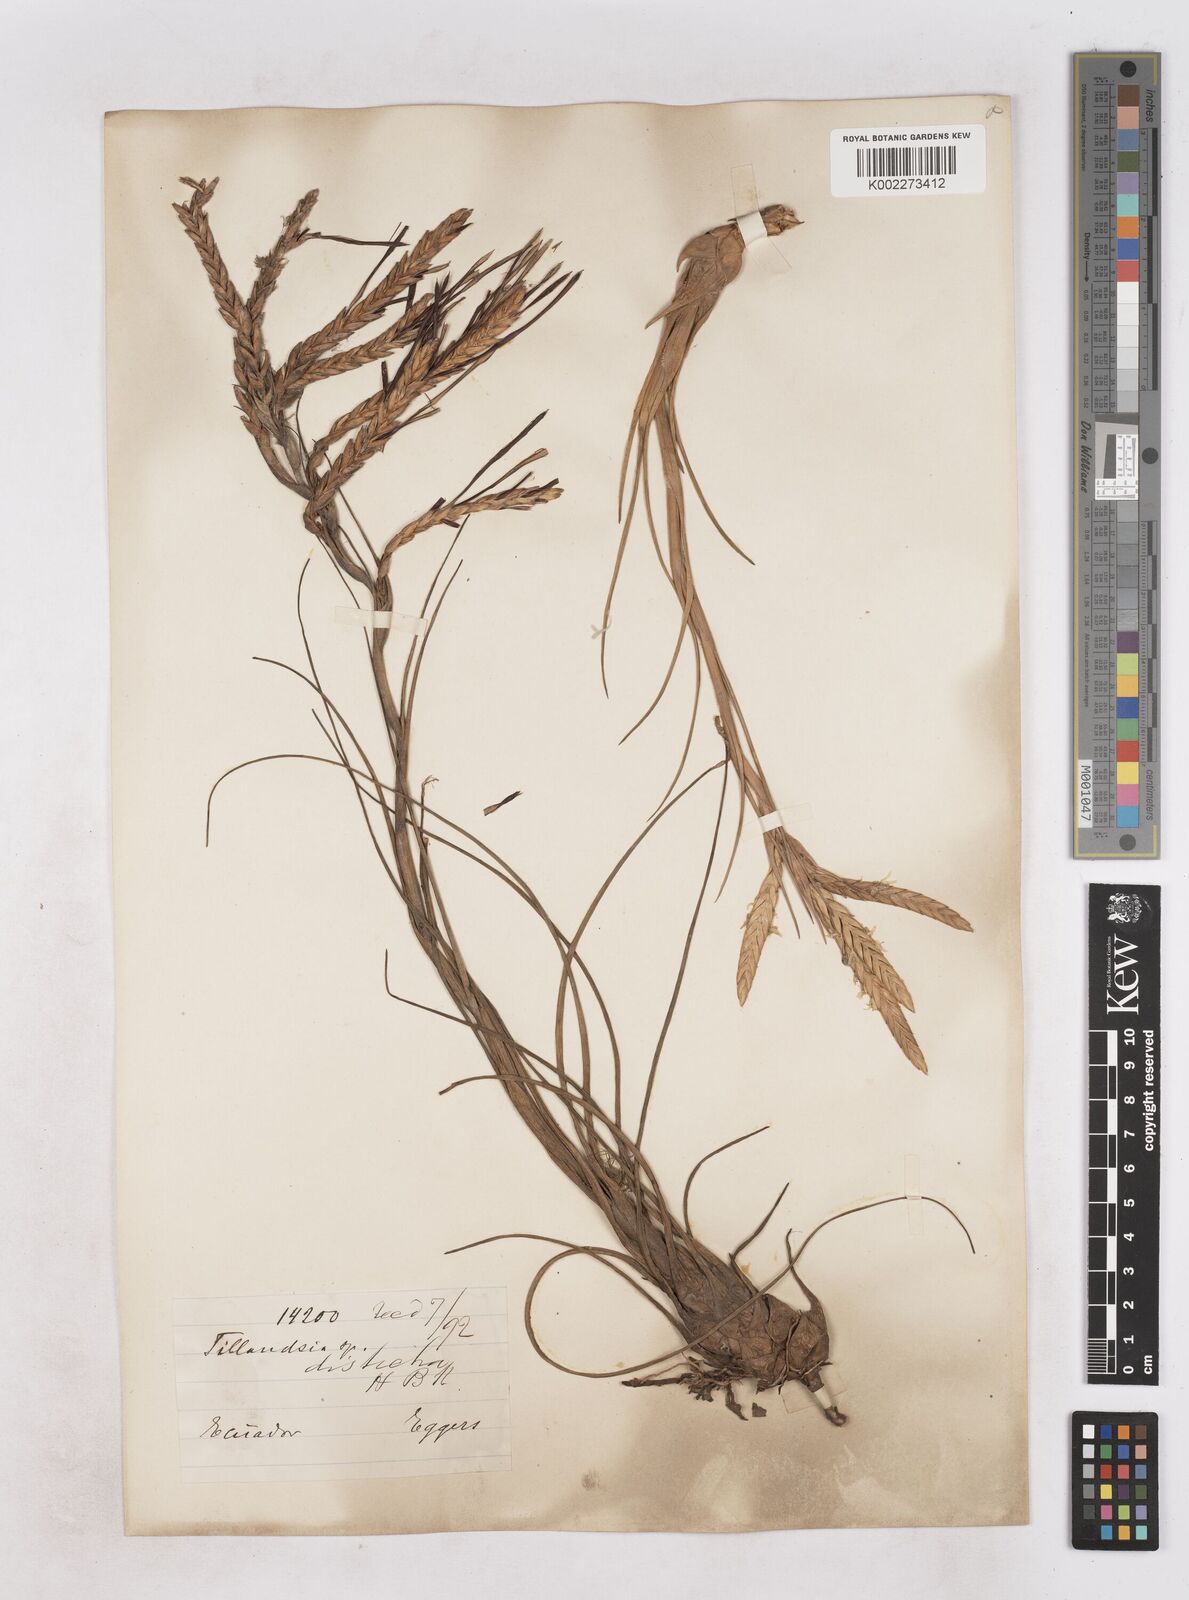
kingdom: Plantae
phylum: Tracheophyta
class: Liliopsida
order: Poales
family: Bromeliaceae
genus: Tillandsia
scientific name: Tillandsia
